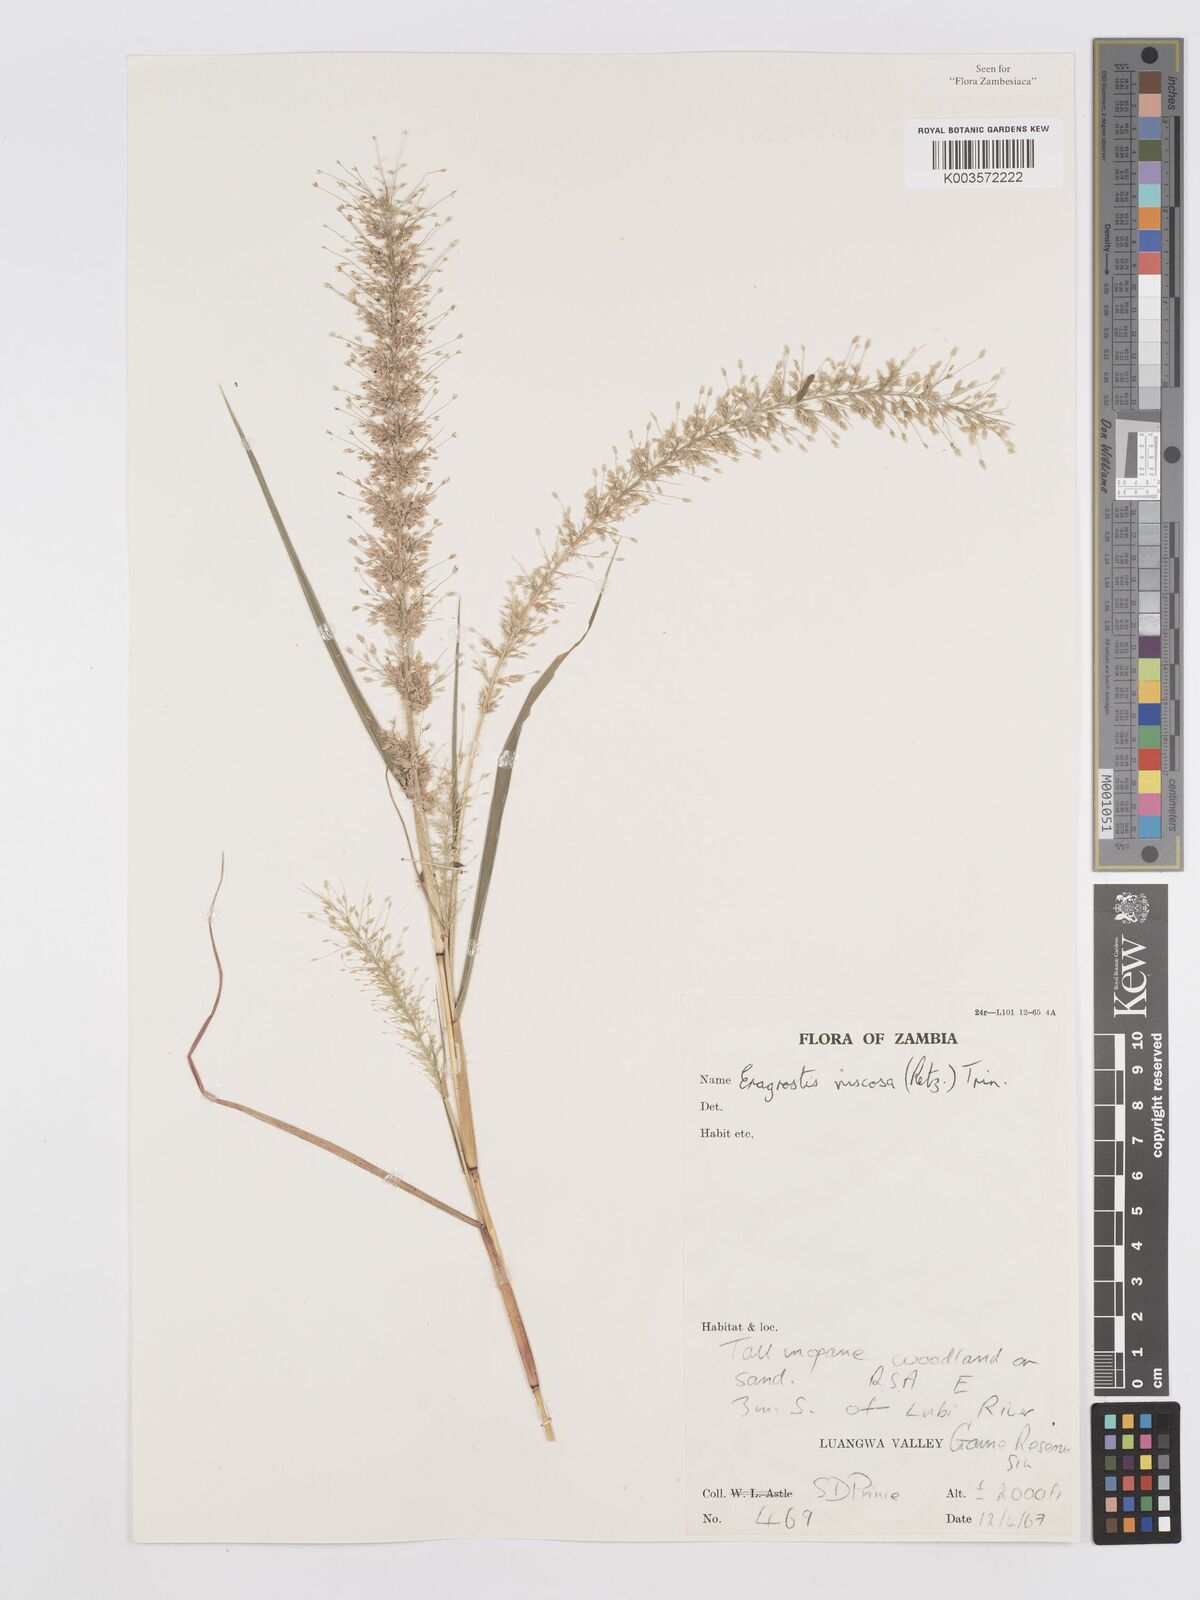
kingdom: Plantae
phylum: Tracheophyta
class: Liliopsida
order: Poales
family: Poaceae
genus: Eragrostis
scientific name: Eragrostis
